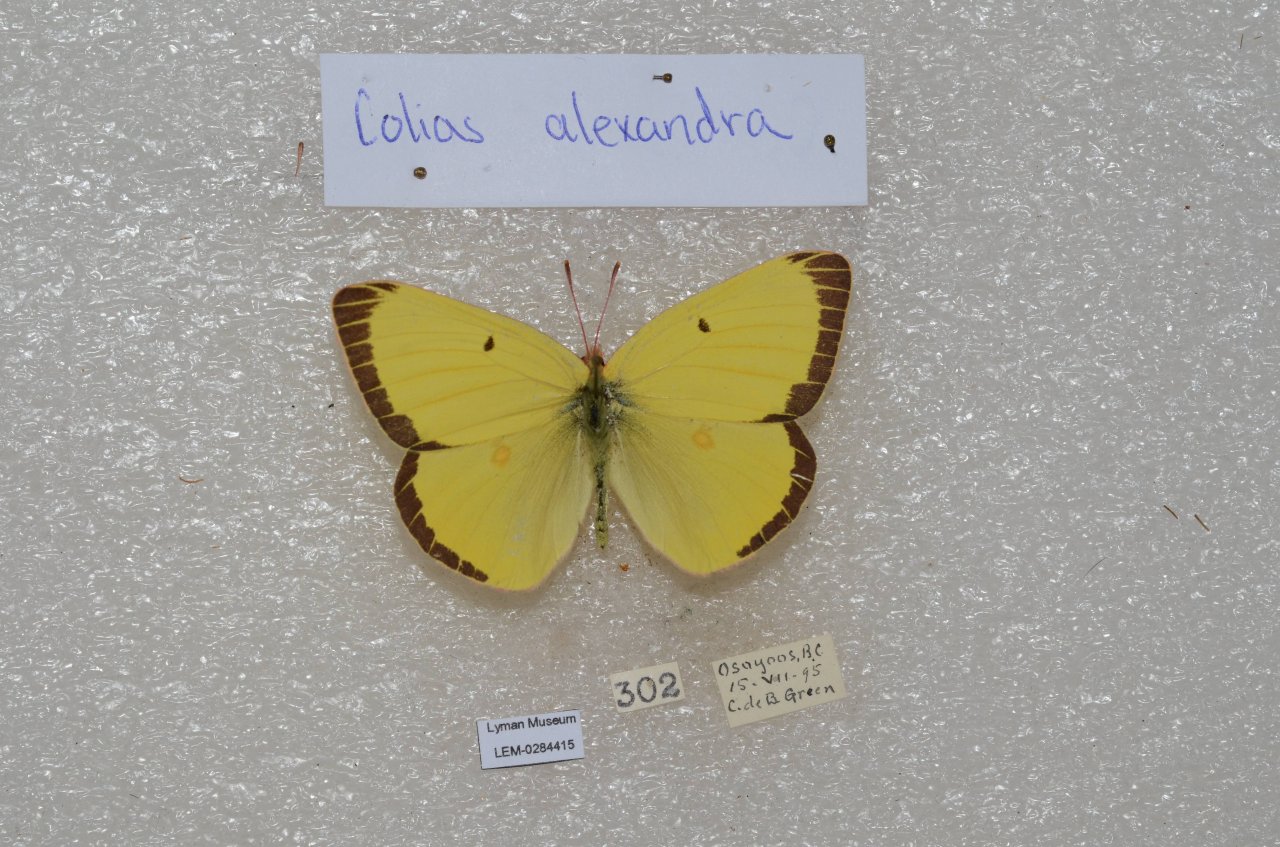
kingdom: Animalia
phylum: Arthropoda
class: Insecta
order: Lepidoptera
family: Pieridae
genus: Colias
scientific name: Colias alexandra
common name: Queen Alexandra's Sulphur
